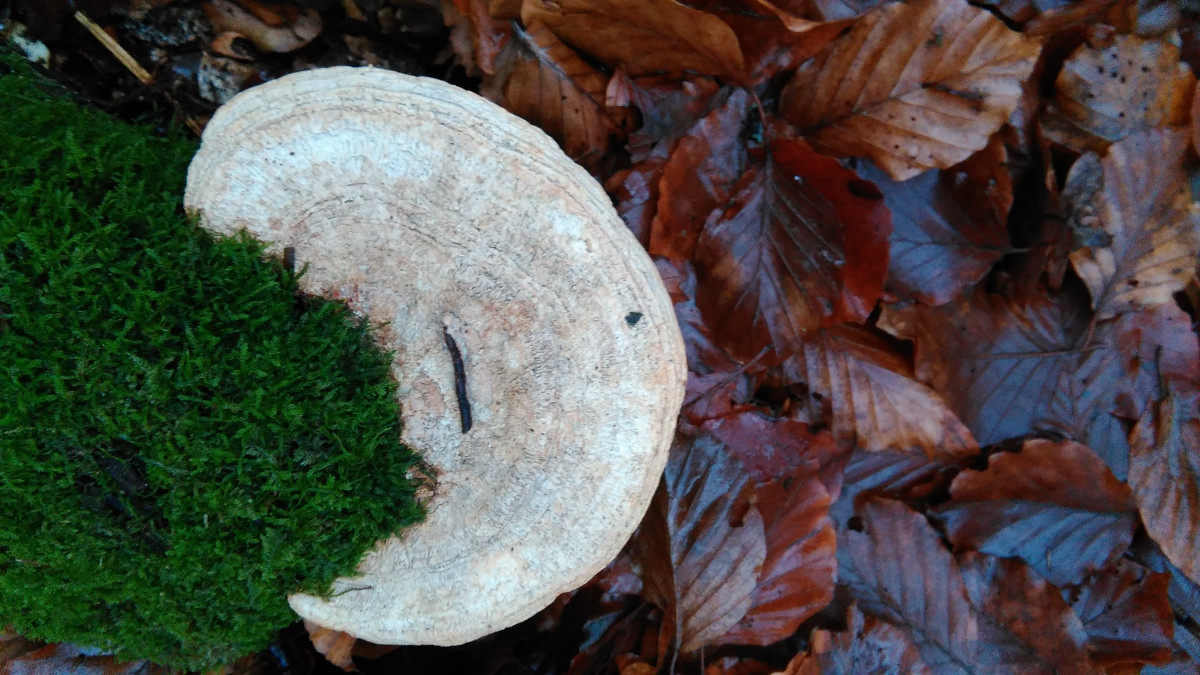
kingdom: Fungi
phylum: Basidiomycota
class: Agaricomycetes
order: Polyporales
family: Fomitopsidaceae
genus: Daedalea
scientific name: Daedalea quercina
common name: ege-labyrintsvamp
